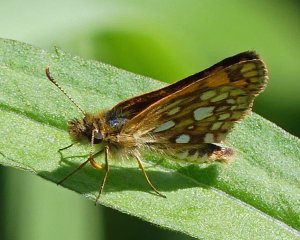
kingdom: Animalia
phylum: Arthropoda
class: Insecta
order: Lepidoptera
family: Hesperiidae
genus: Carterocephalus
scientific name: Carterocephalus palaemon
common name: Chequered Skipper
